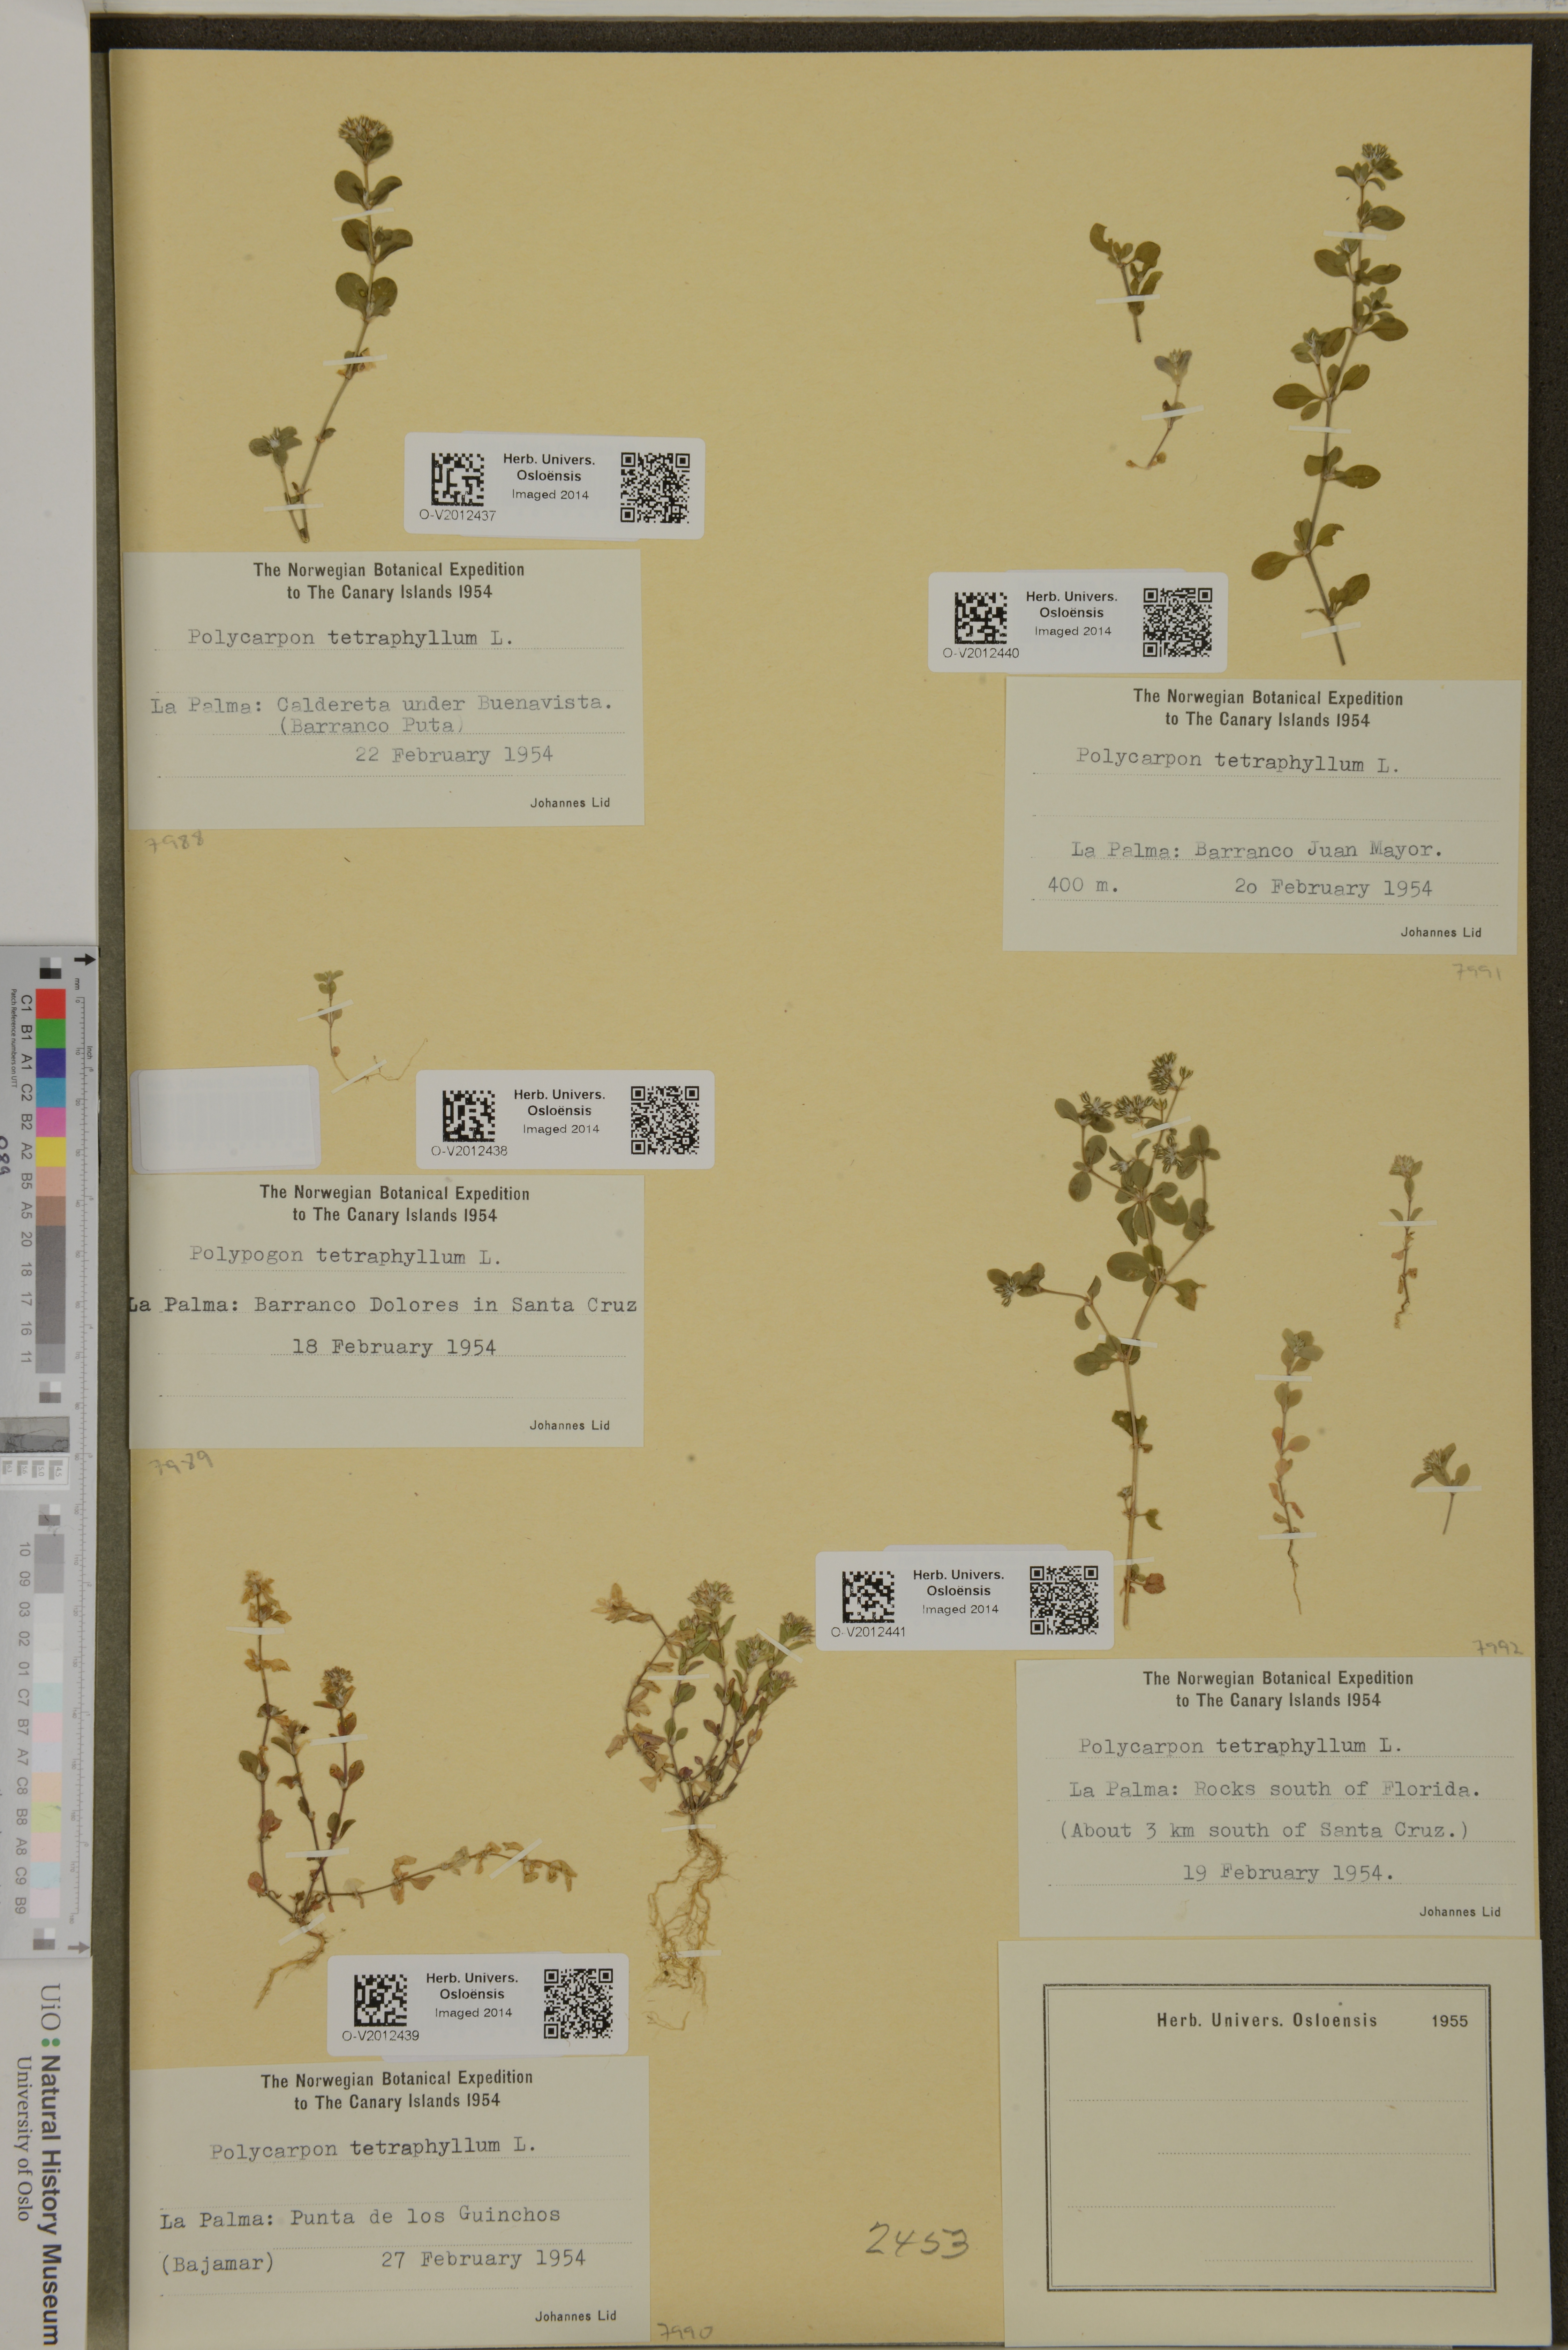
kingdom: Plantae
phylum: Tracheophyta
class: Magnoliopsida
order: Caryophyllales
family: Caryophyllaceae
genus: Polycarpon
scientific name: Polycarpon tetraphyllum
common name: Four-leaved all-seed
